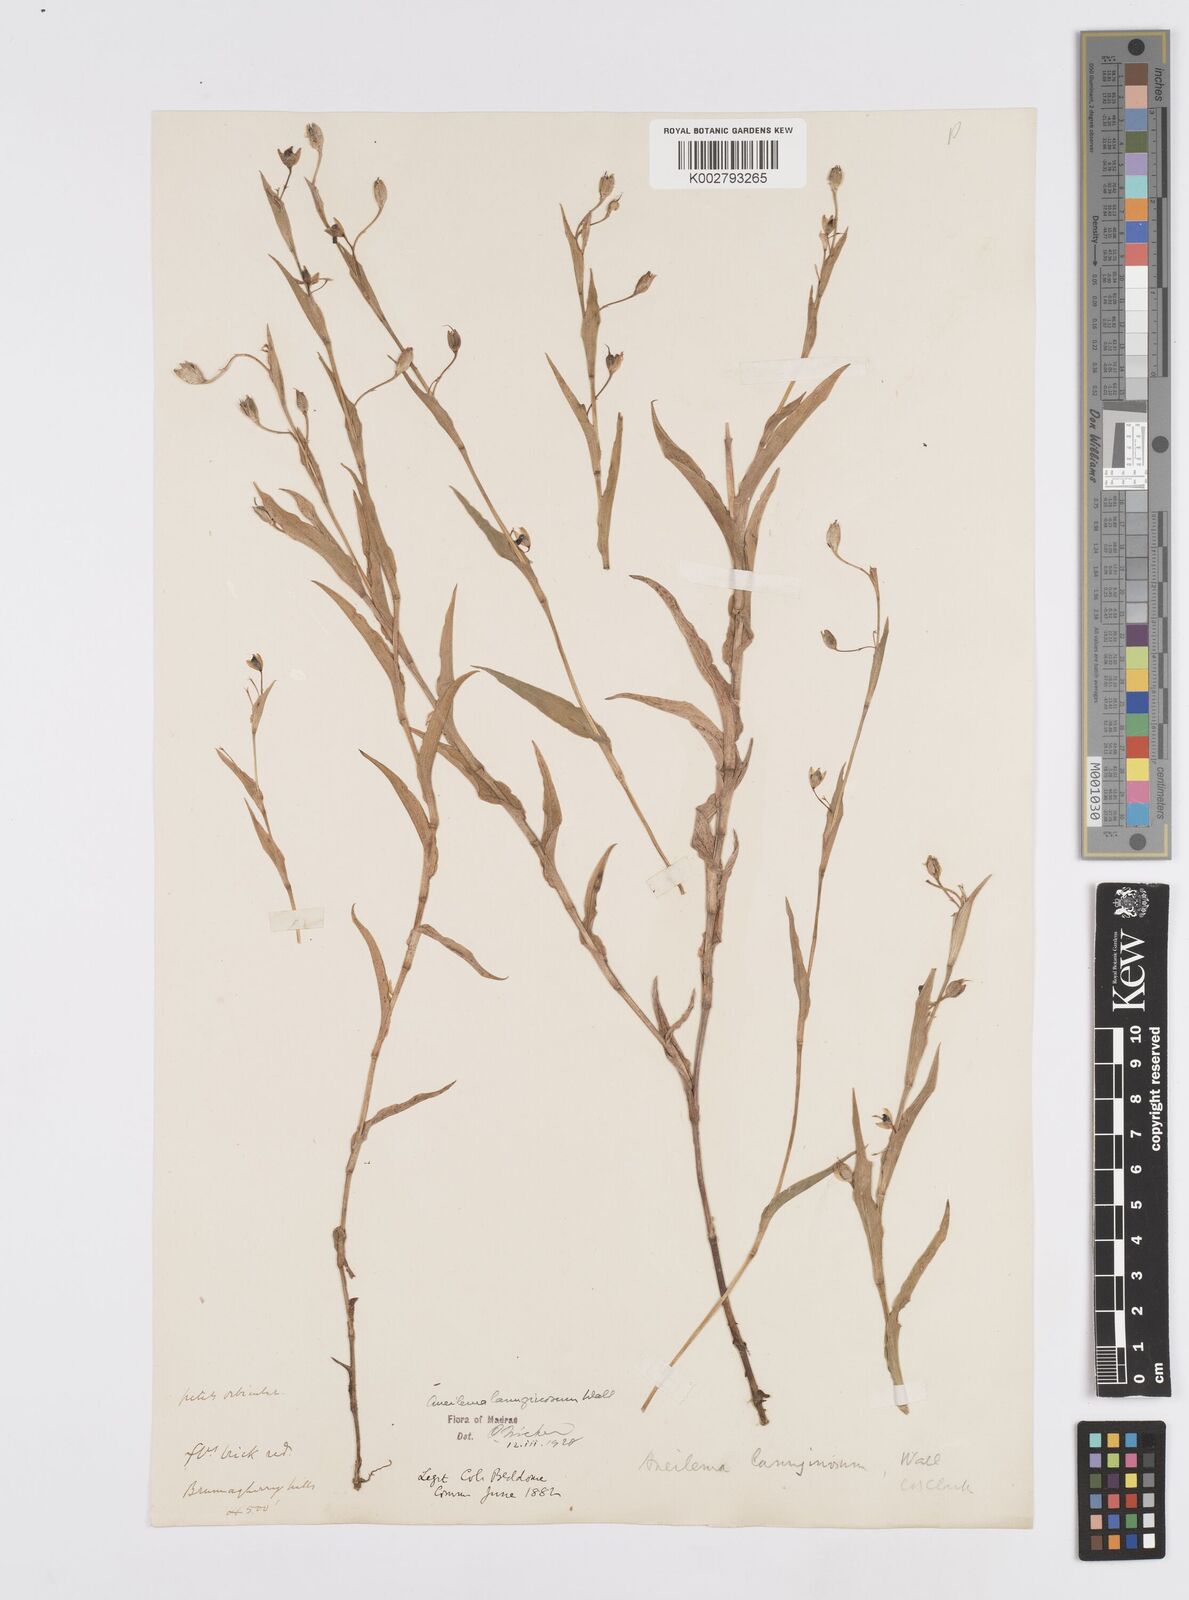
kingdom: Plantae
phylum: Tracheophyta
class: Liliopsida
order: Commelinales
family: Commelinaceae
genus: Murdannia
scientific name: Murdannia lanuginosa
